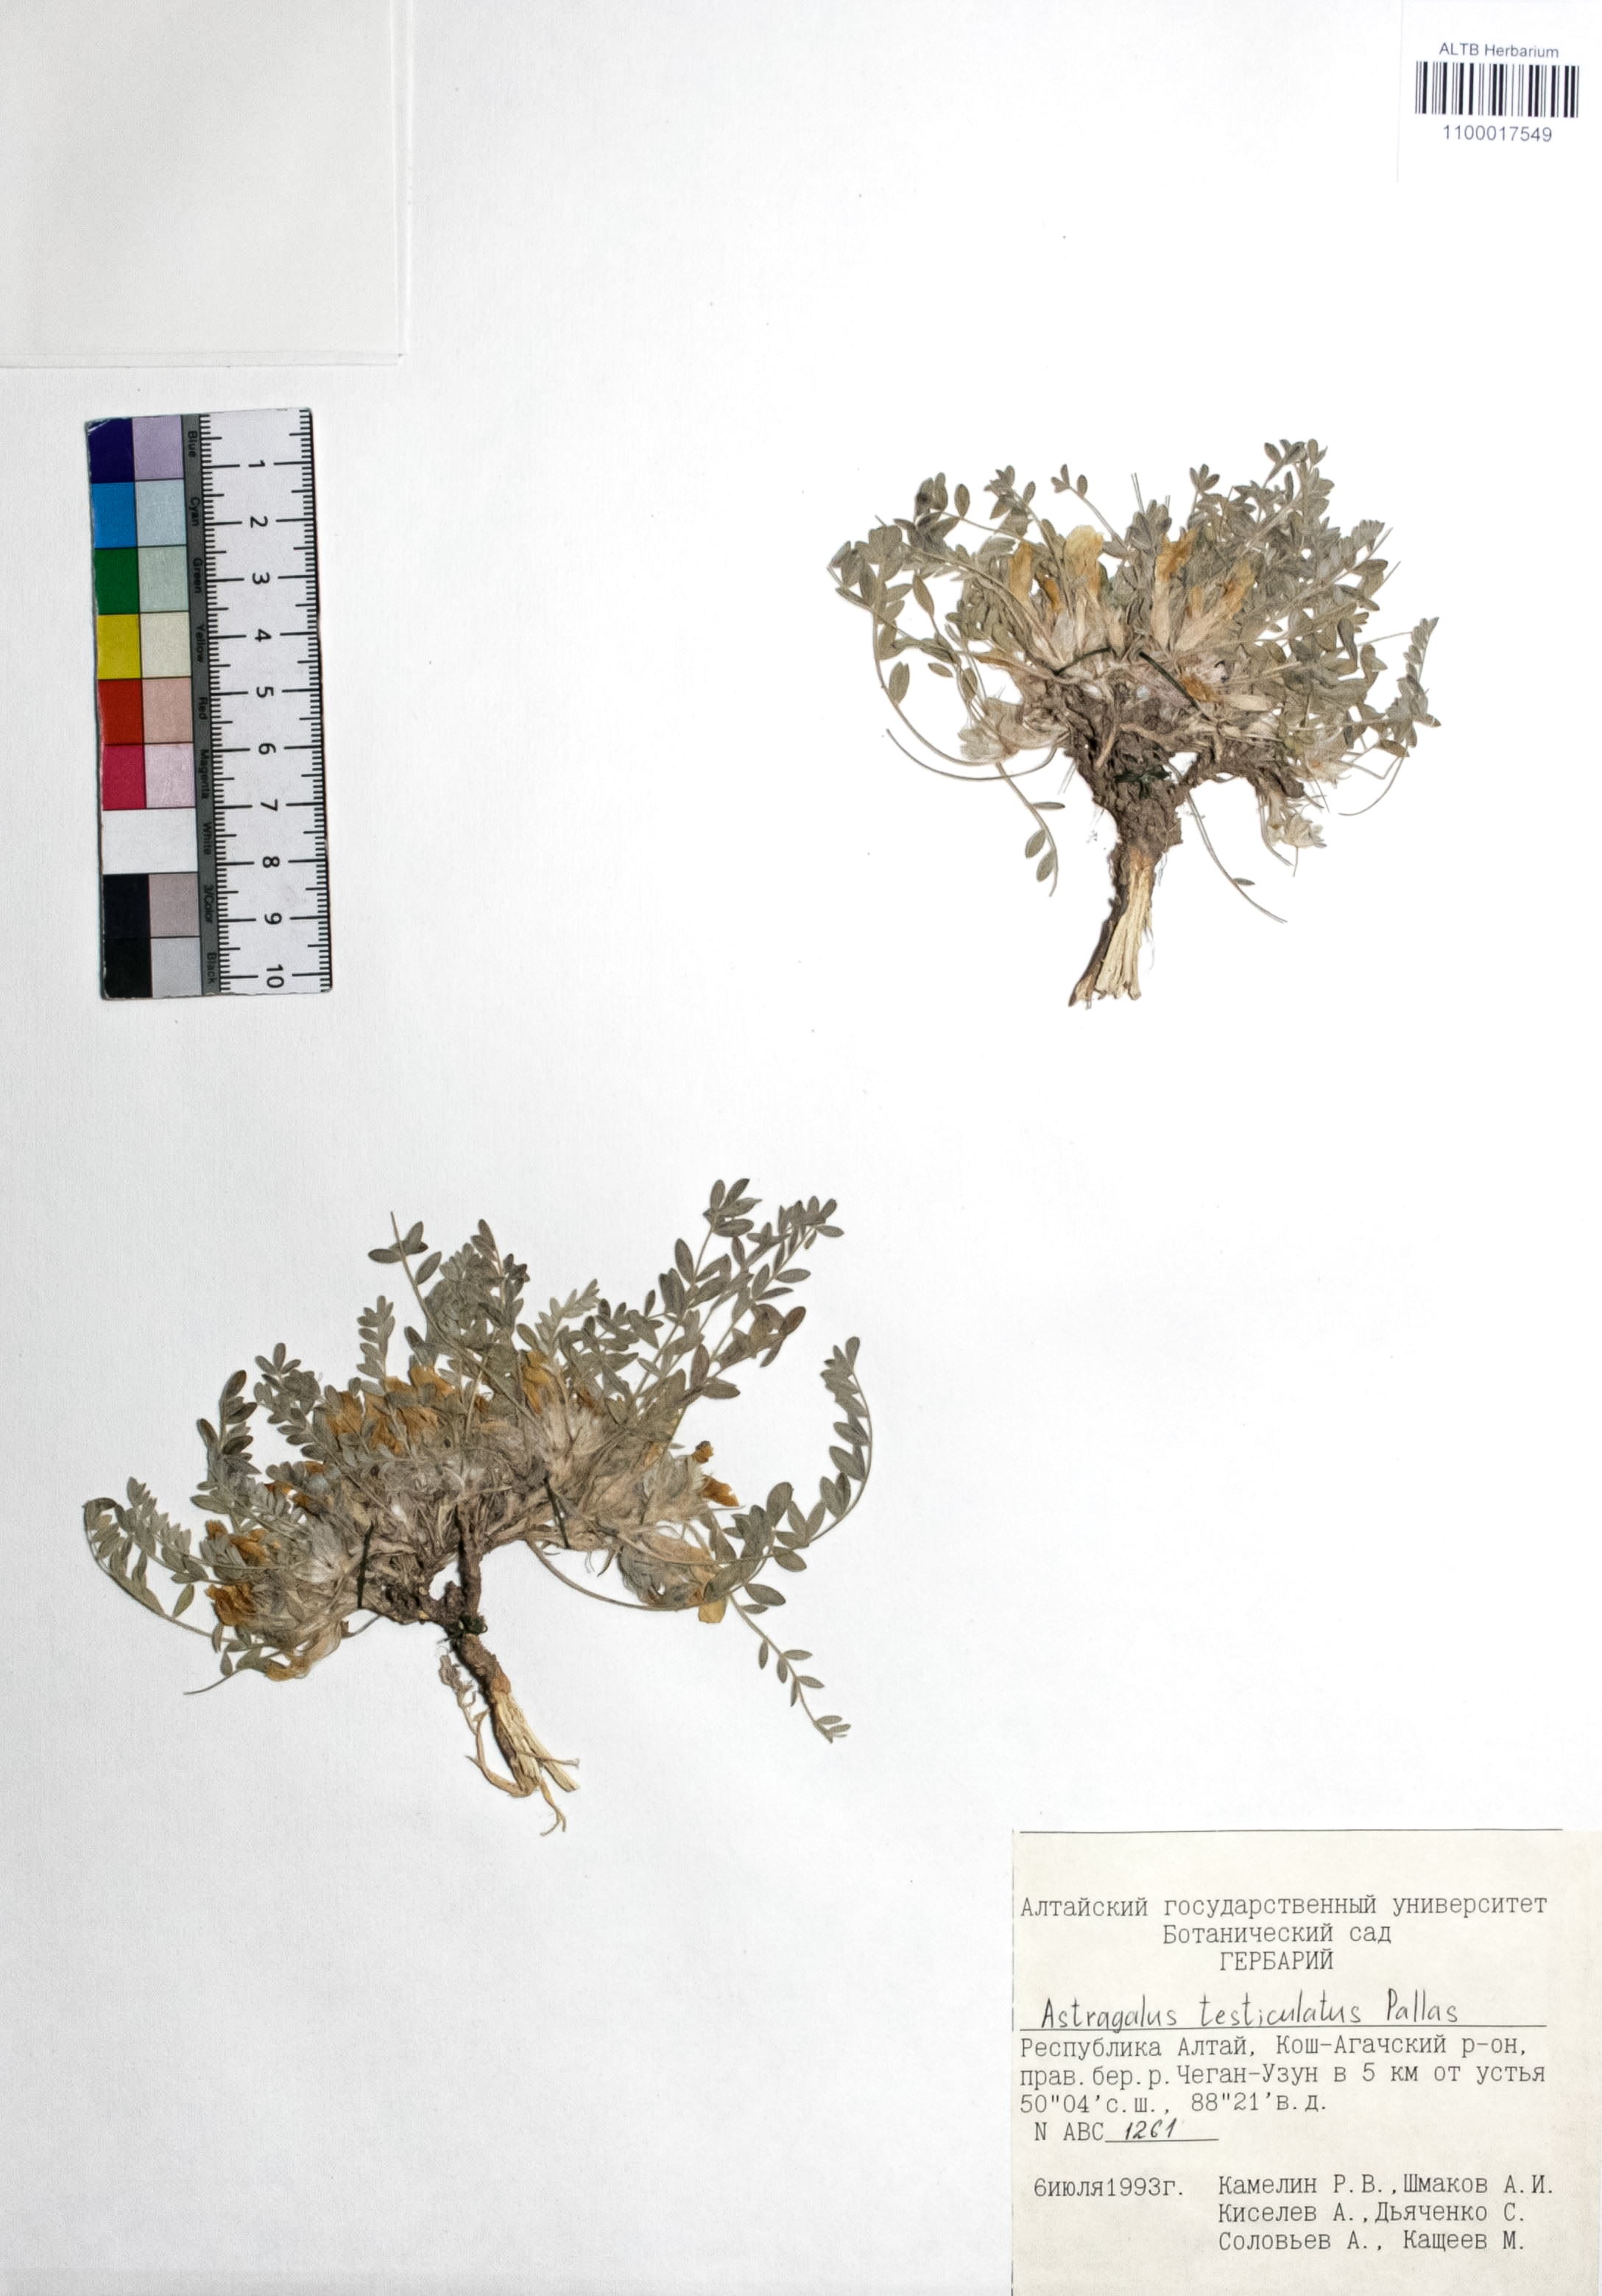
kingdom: Plantae
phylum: Tracheophyta
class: Magnoliopsida
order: Fabales
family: Fabaceae
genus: Astragalus
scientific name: Astragalus testiculatus
